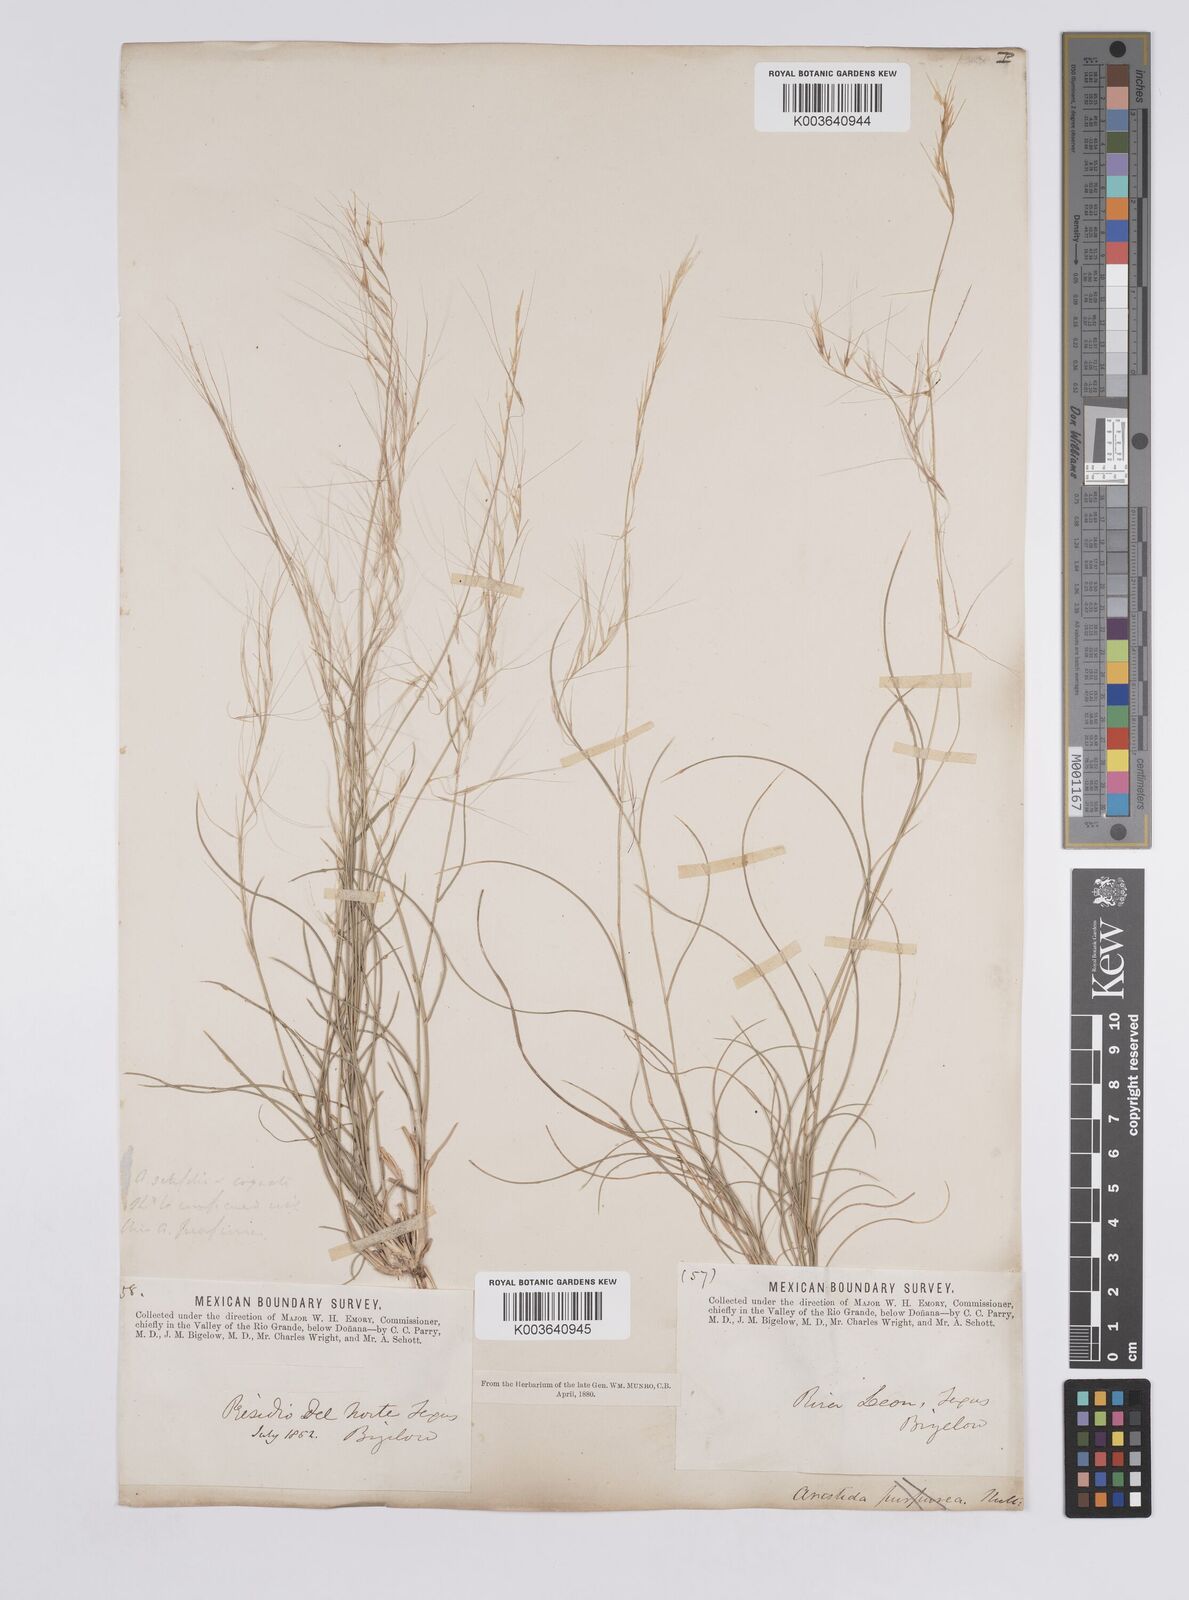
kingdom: Plantae
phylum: Tracheophyta
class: Liliopsida
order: Poales
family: Poaceae
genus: Aristida
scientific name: Aristida purpurea
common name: Purple threeawn
